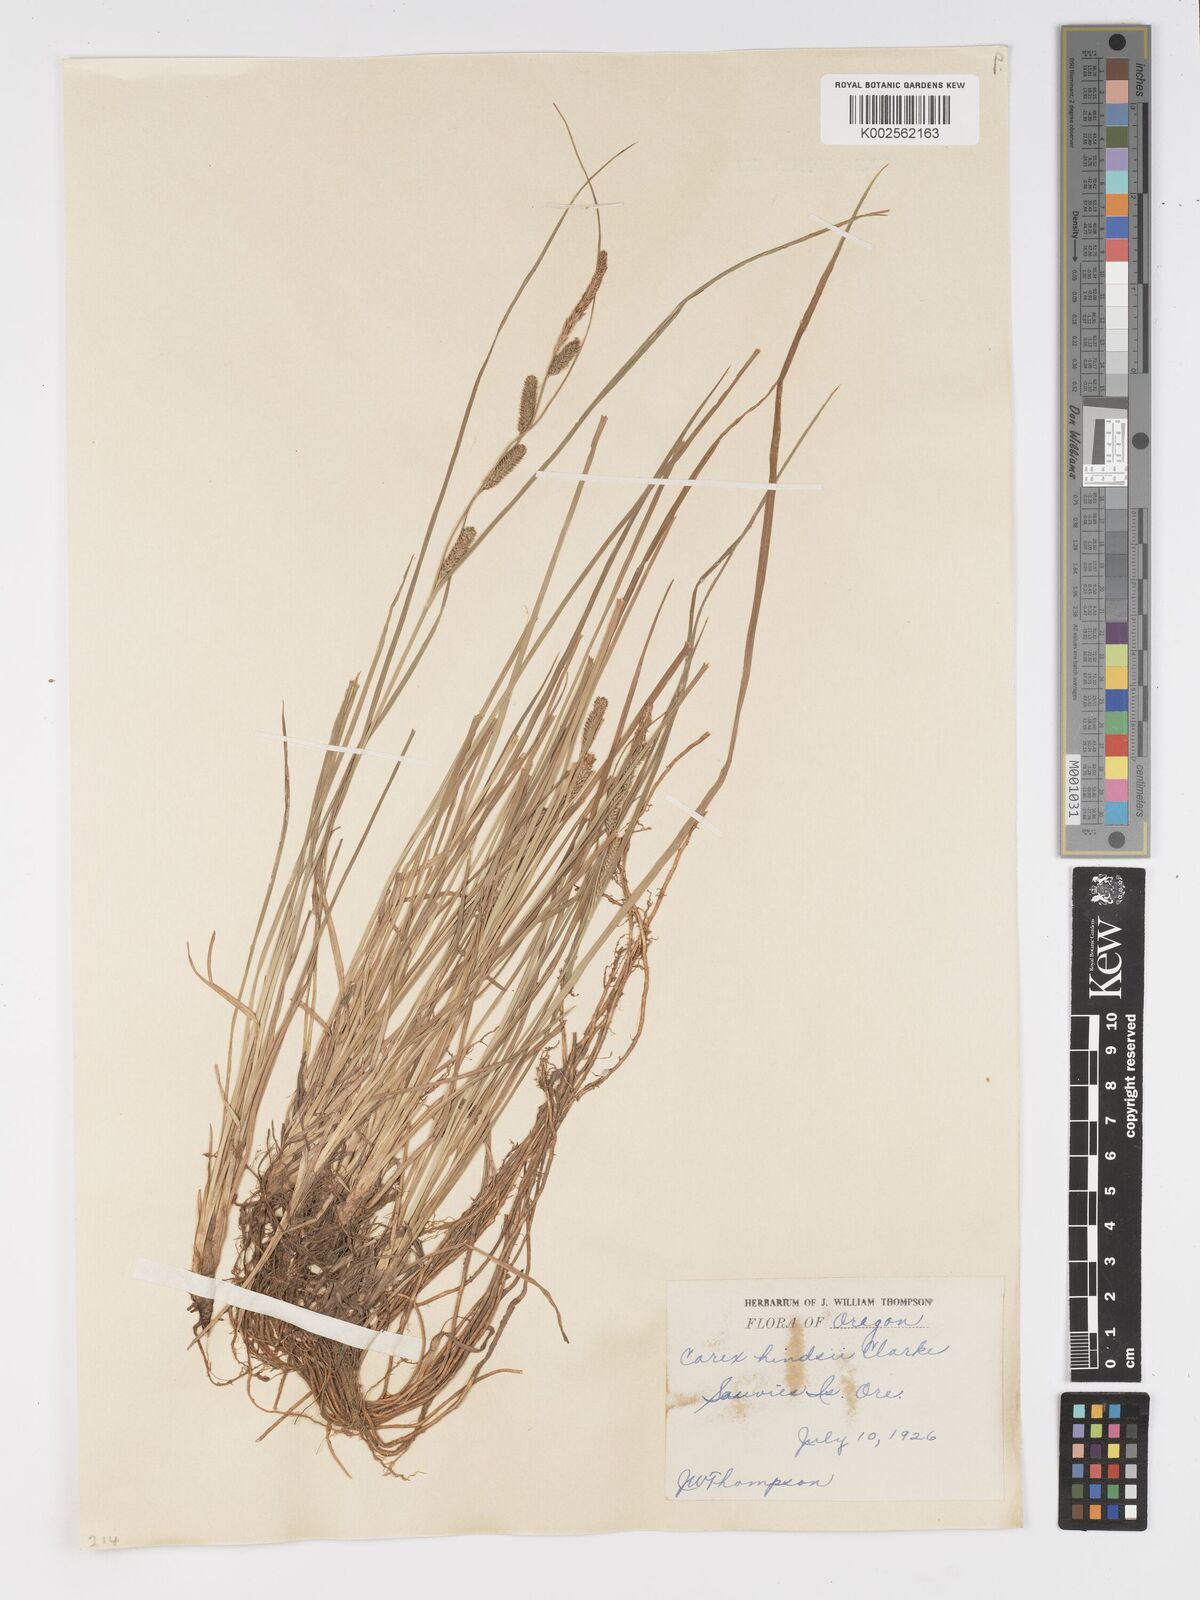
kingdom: Plantae
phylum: Tracheophyta
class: Liliopsida
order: Poales
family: Cyperaceae
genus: Carex
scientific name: Carex kelloggii
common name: Kellogg's sedge
